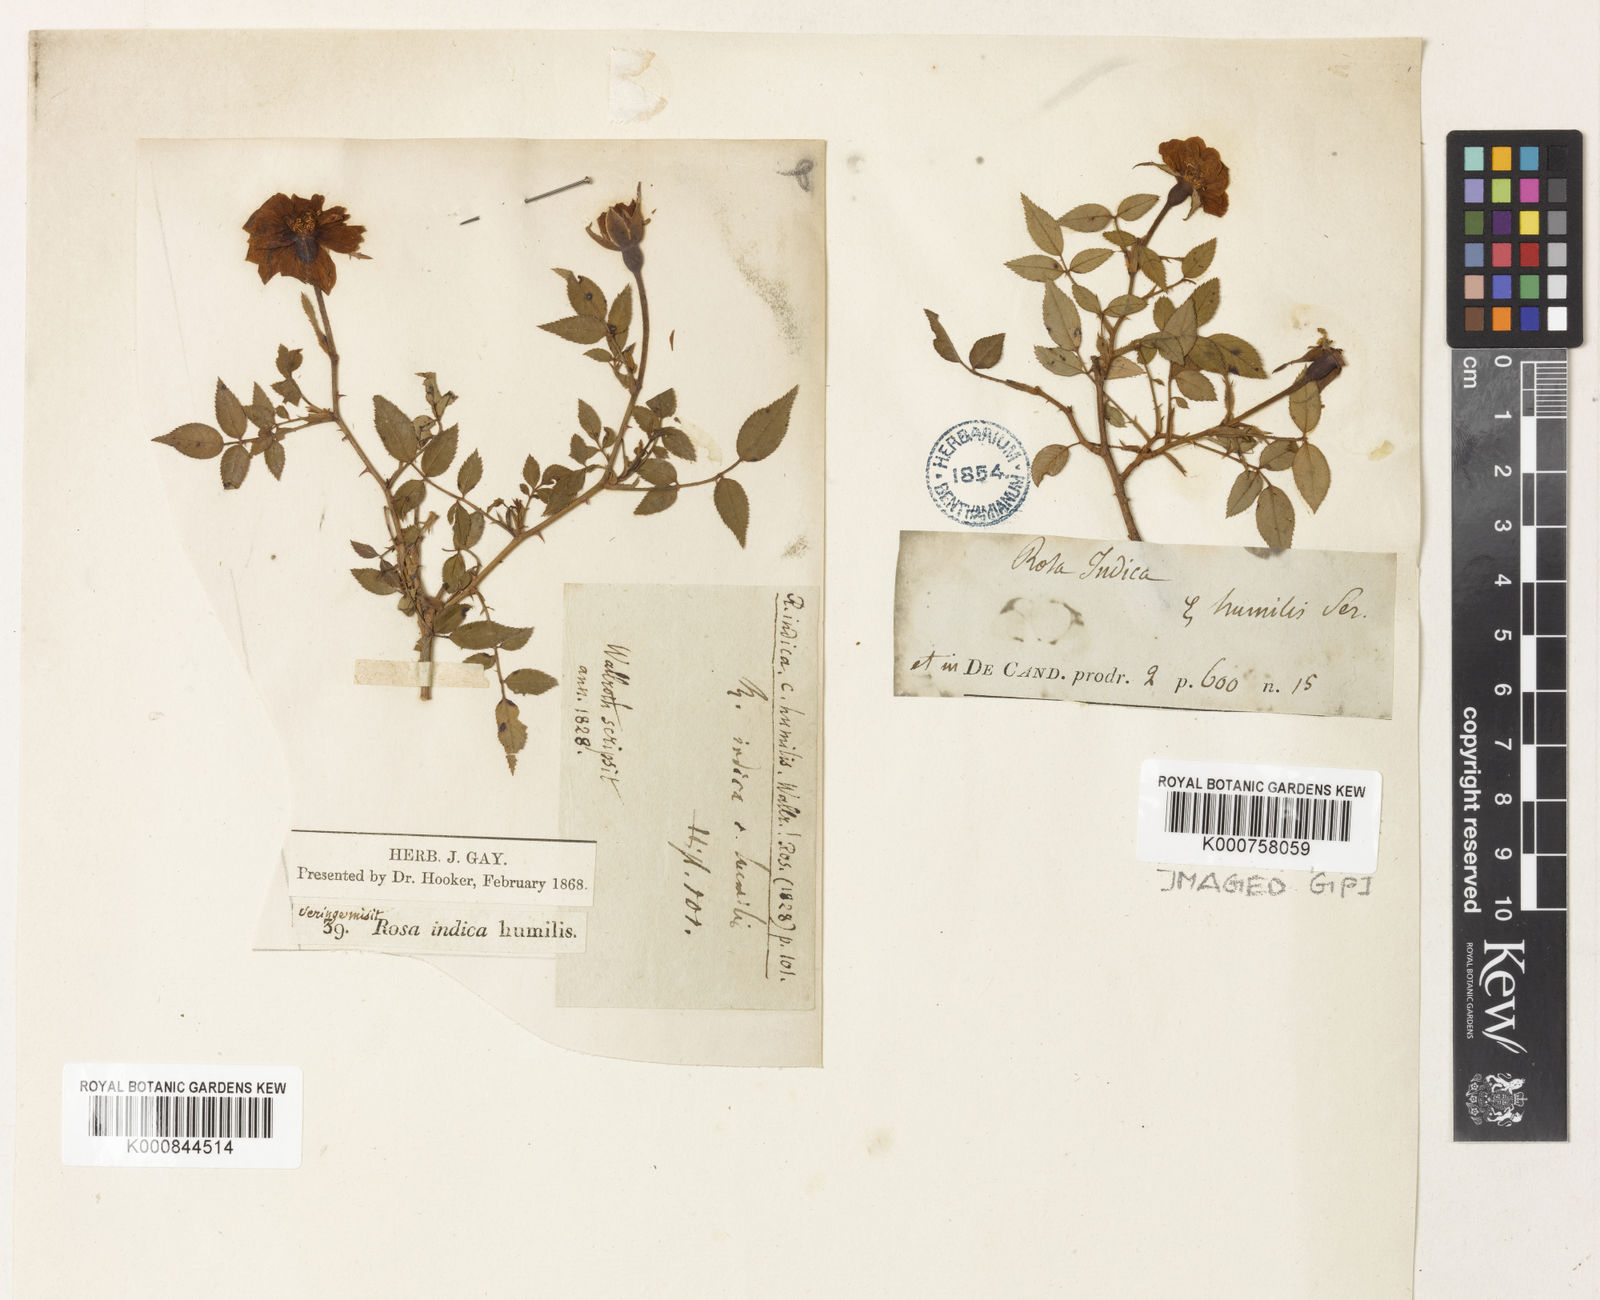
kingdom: Plantae
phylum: Tracheophyta
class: Magnoliopsida
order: Rosales
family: Rosaceae
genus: Rosa
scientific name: Rosa chinensis
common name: China rose
